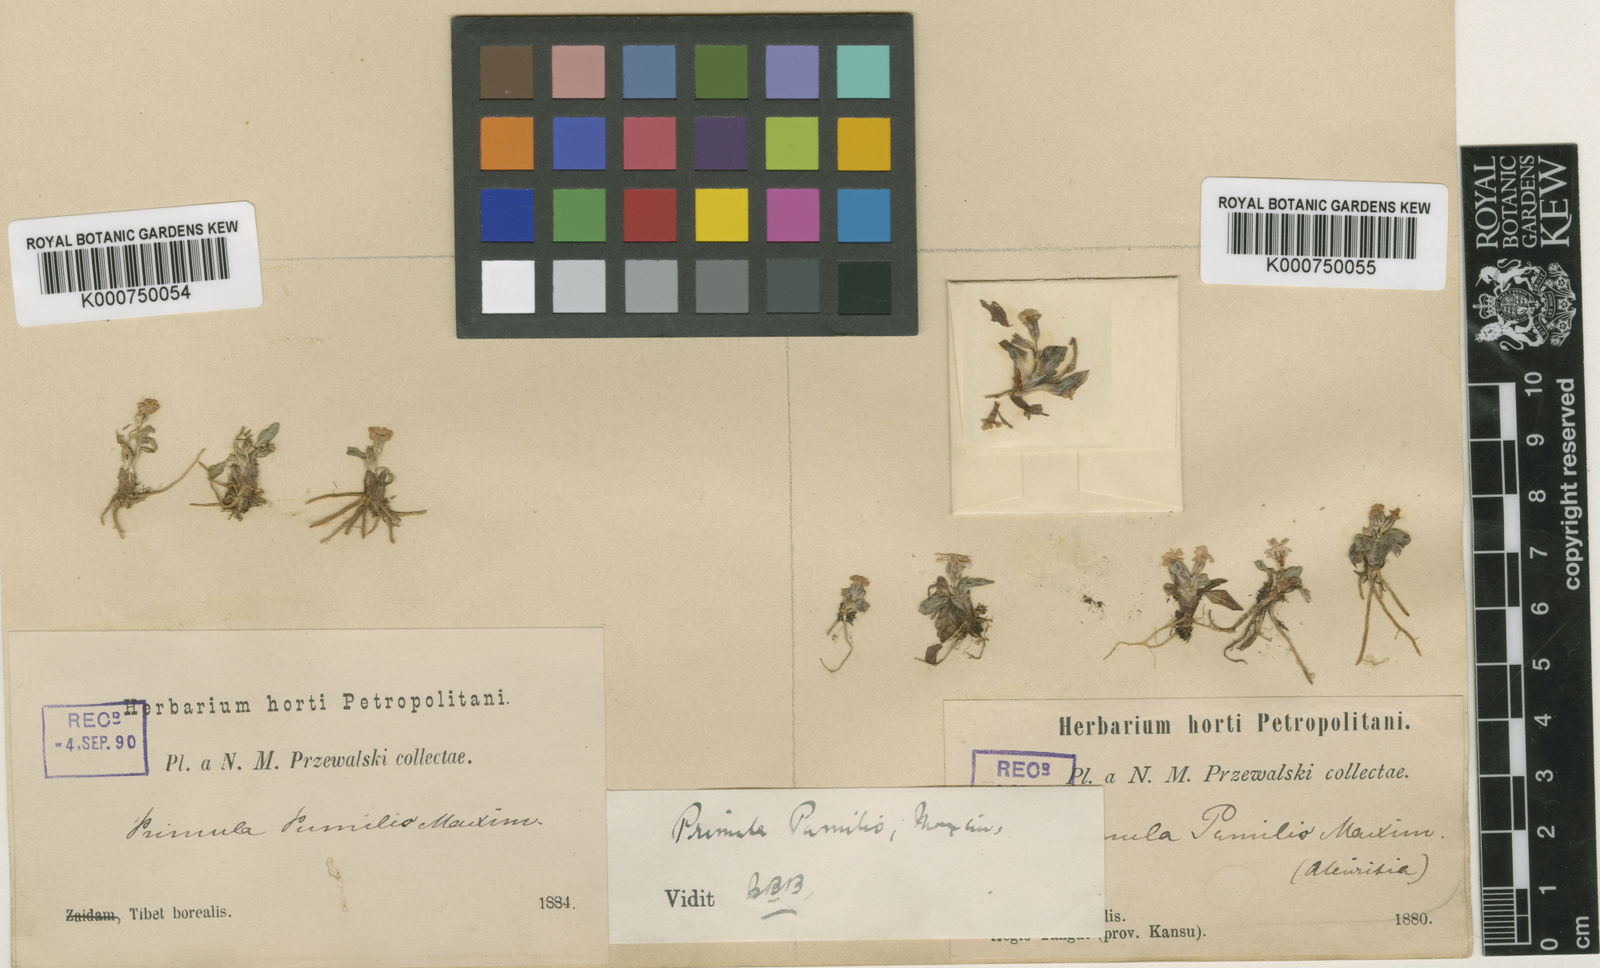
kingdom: Plantae
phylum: Tracheophyta
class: Magnoliopsida
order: Ericales
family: Primulaceae
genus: Primula
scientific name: Primula pumilio
